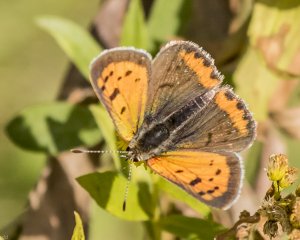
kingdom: Animalia
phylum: Arthropoda
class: Insecta
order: Lepidoptera
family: Lycaenidae
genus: Lycaena
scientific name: Lycaena phlaeas
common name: American Copper
